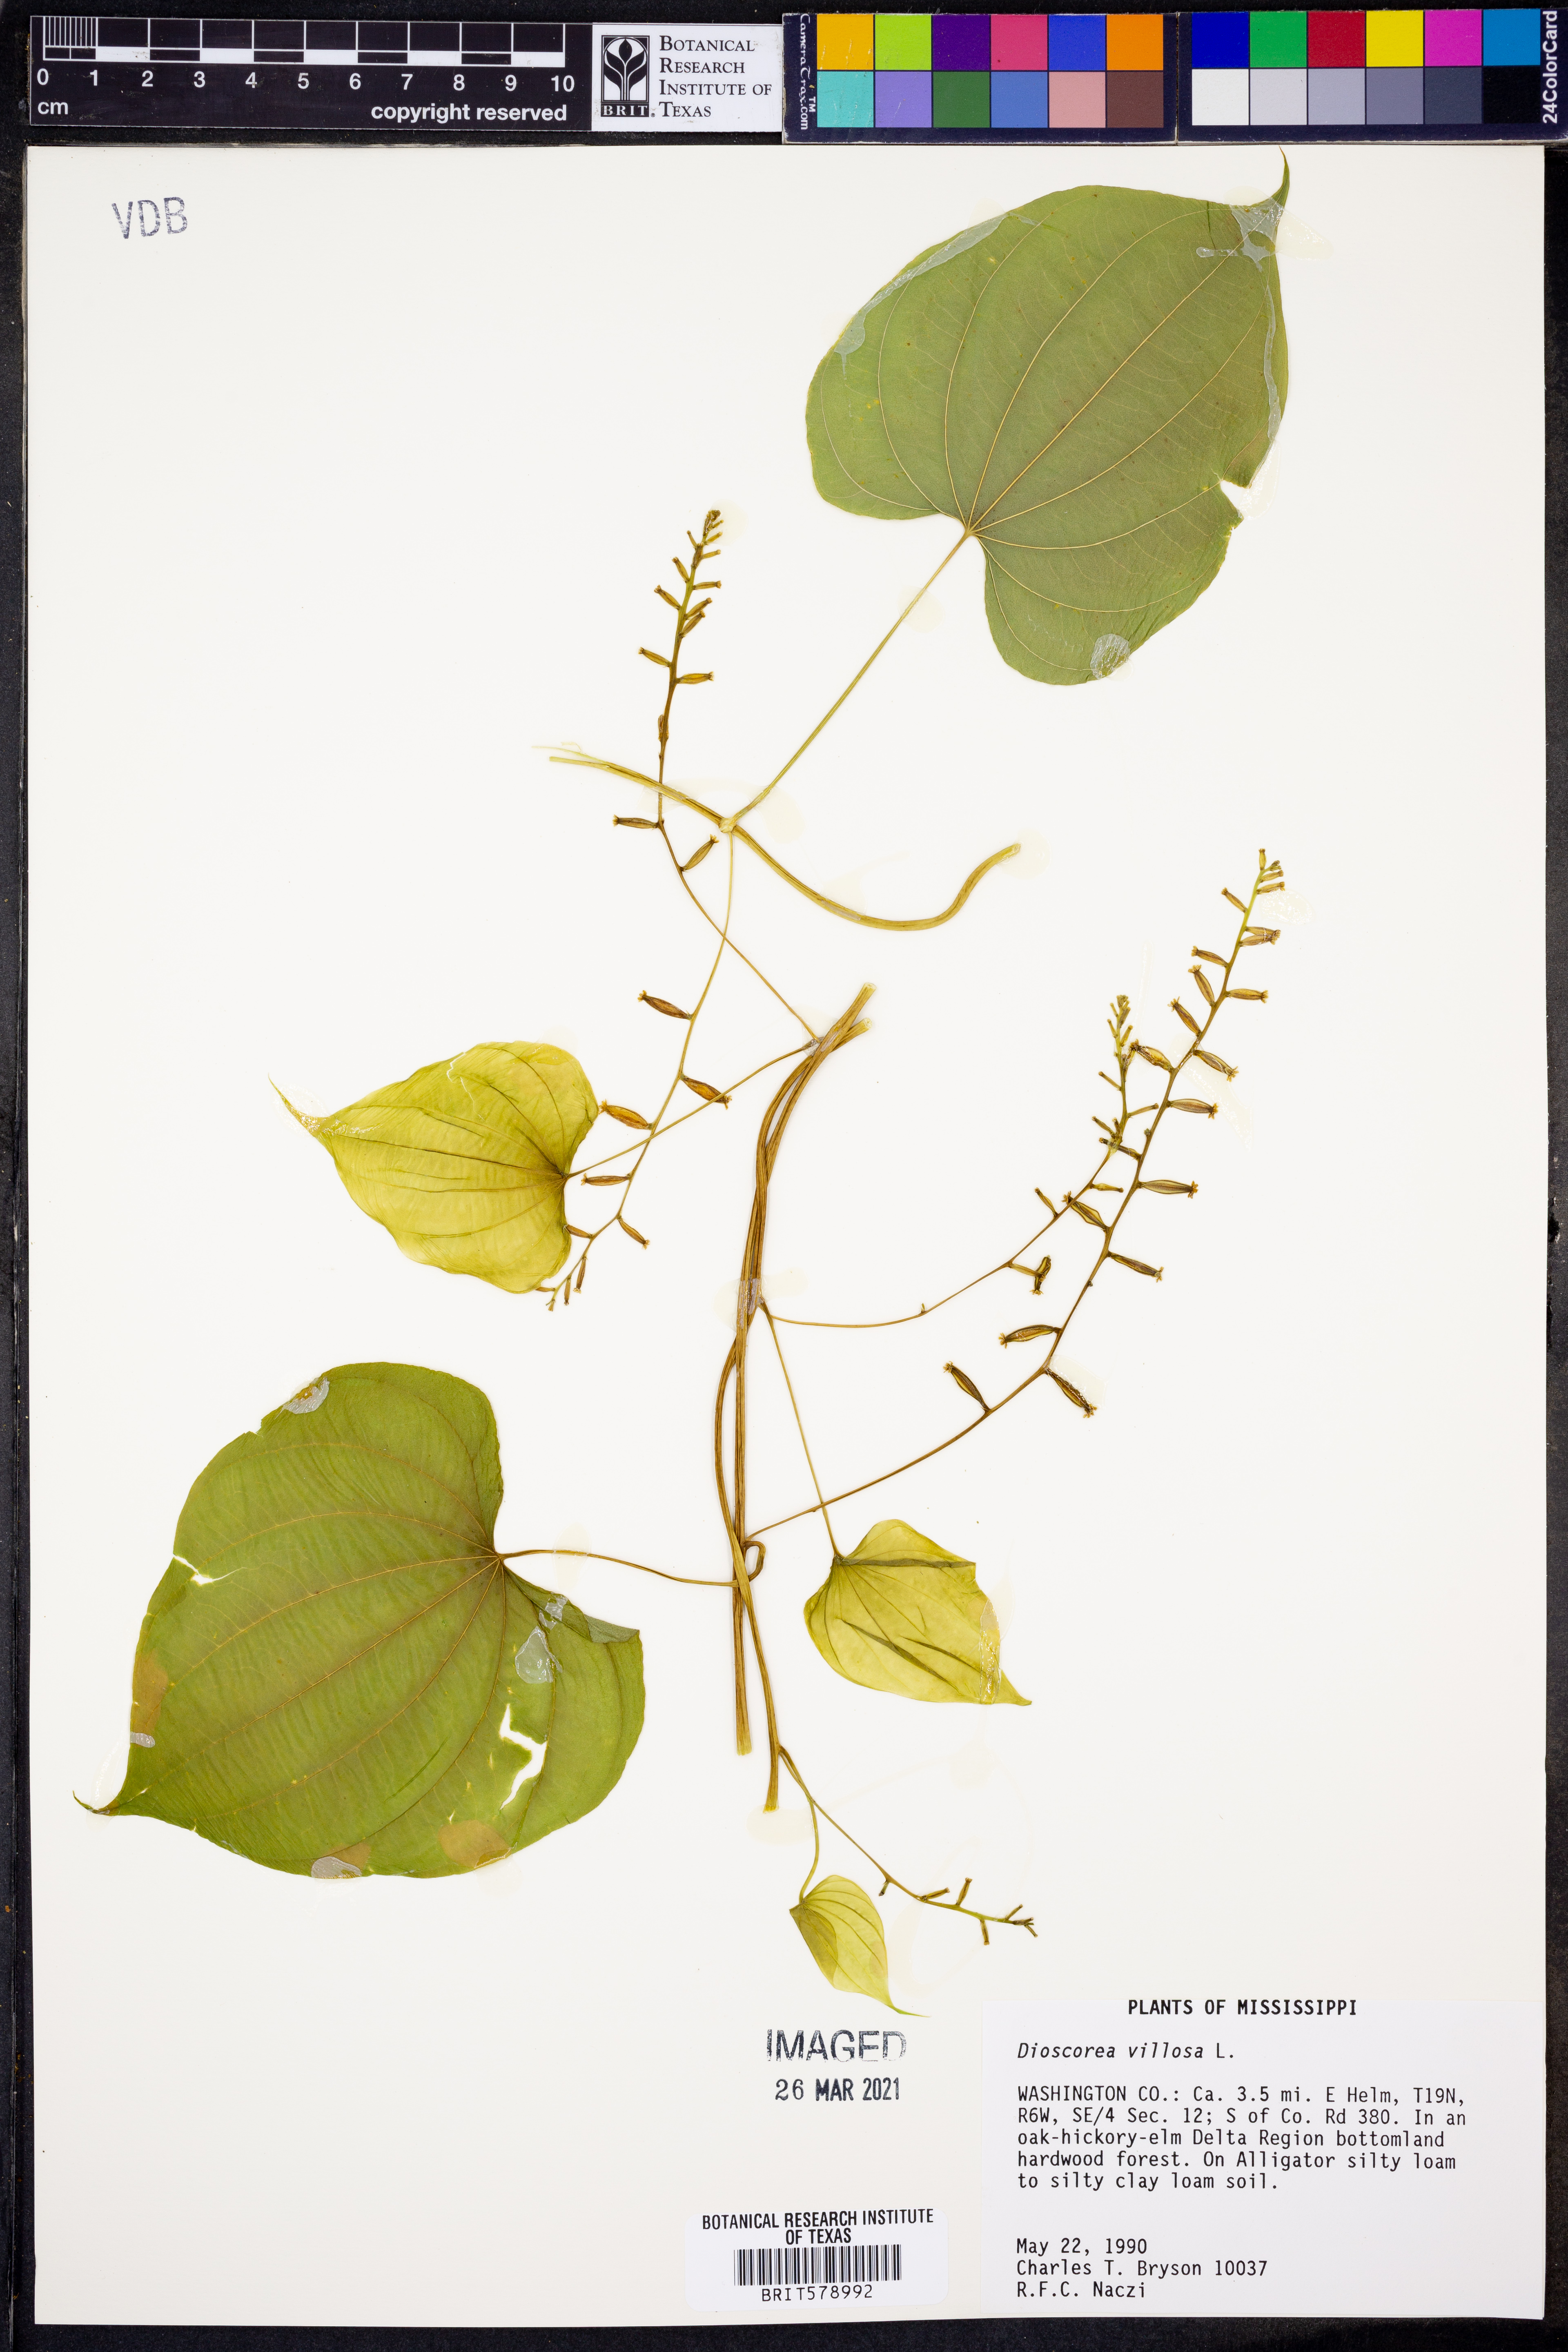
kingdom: Plantae
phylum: Tracheophyta
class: Liliopsida
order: Dioscoreales
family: Dioscoreaceae
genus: Dioscorea
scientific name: Dioscorea villosa
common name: Wild yam
